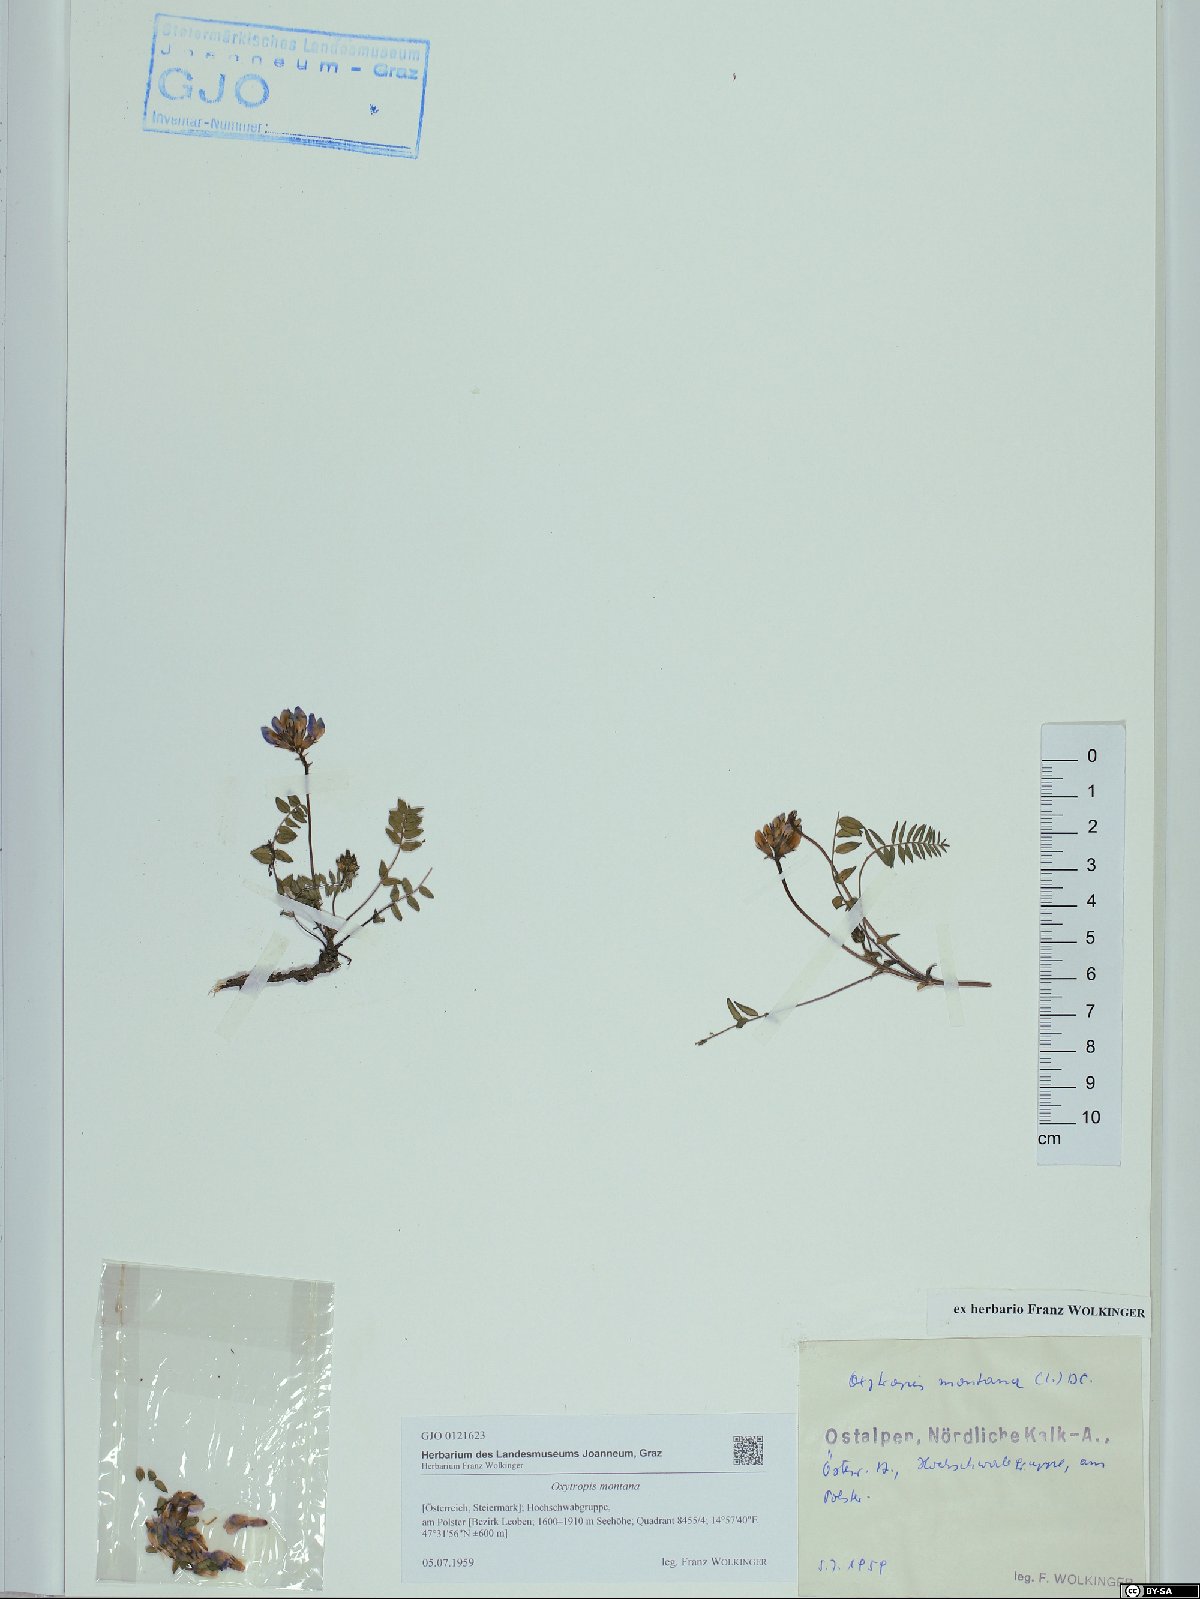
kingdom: Plantae
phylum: Tracheophyta
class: Magnoliopsida
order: Fabales
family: Fabaceae
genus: Oxytropis
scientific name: Oxytropis montana
